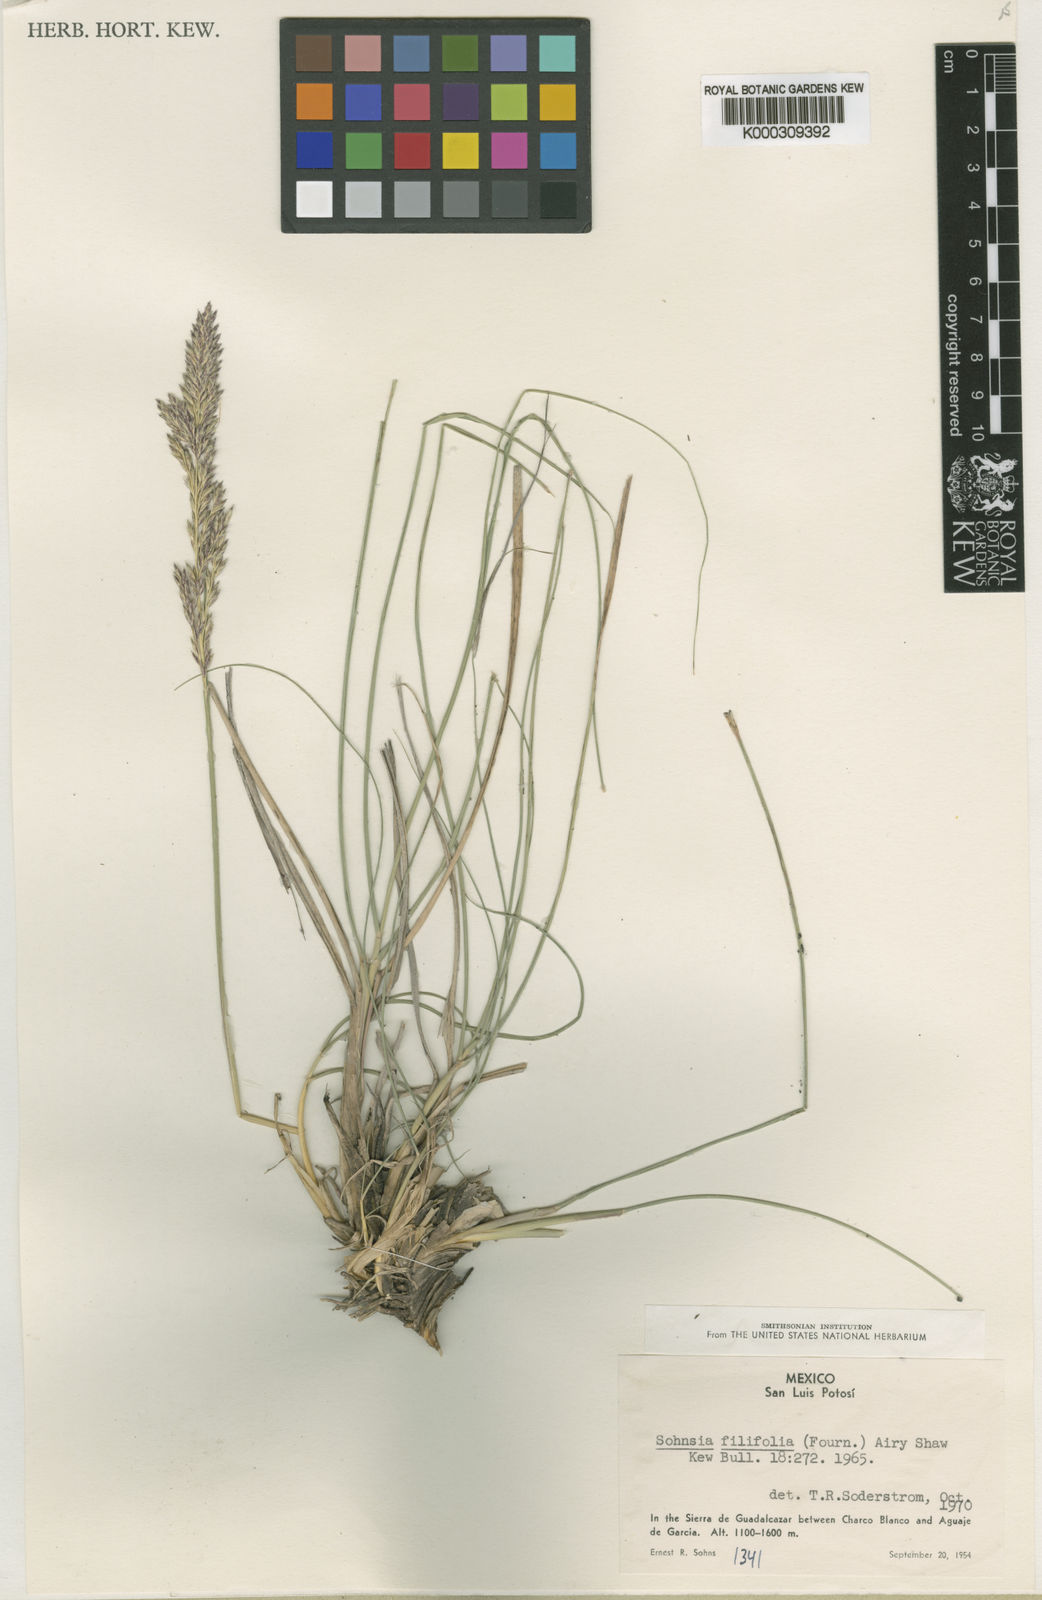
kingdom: Plantae
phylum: Tracheophyta
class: Liliopsida
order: Poales
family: Poaceae
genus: Sohnsia
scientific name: Sohnsia filifolia
